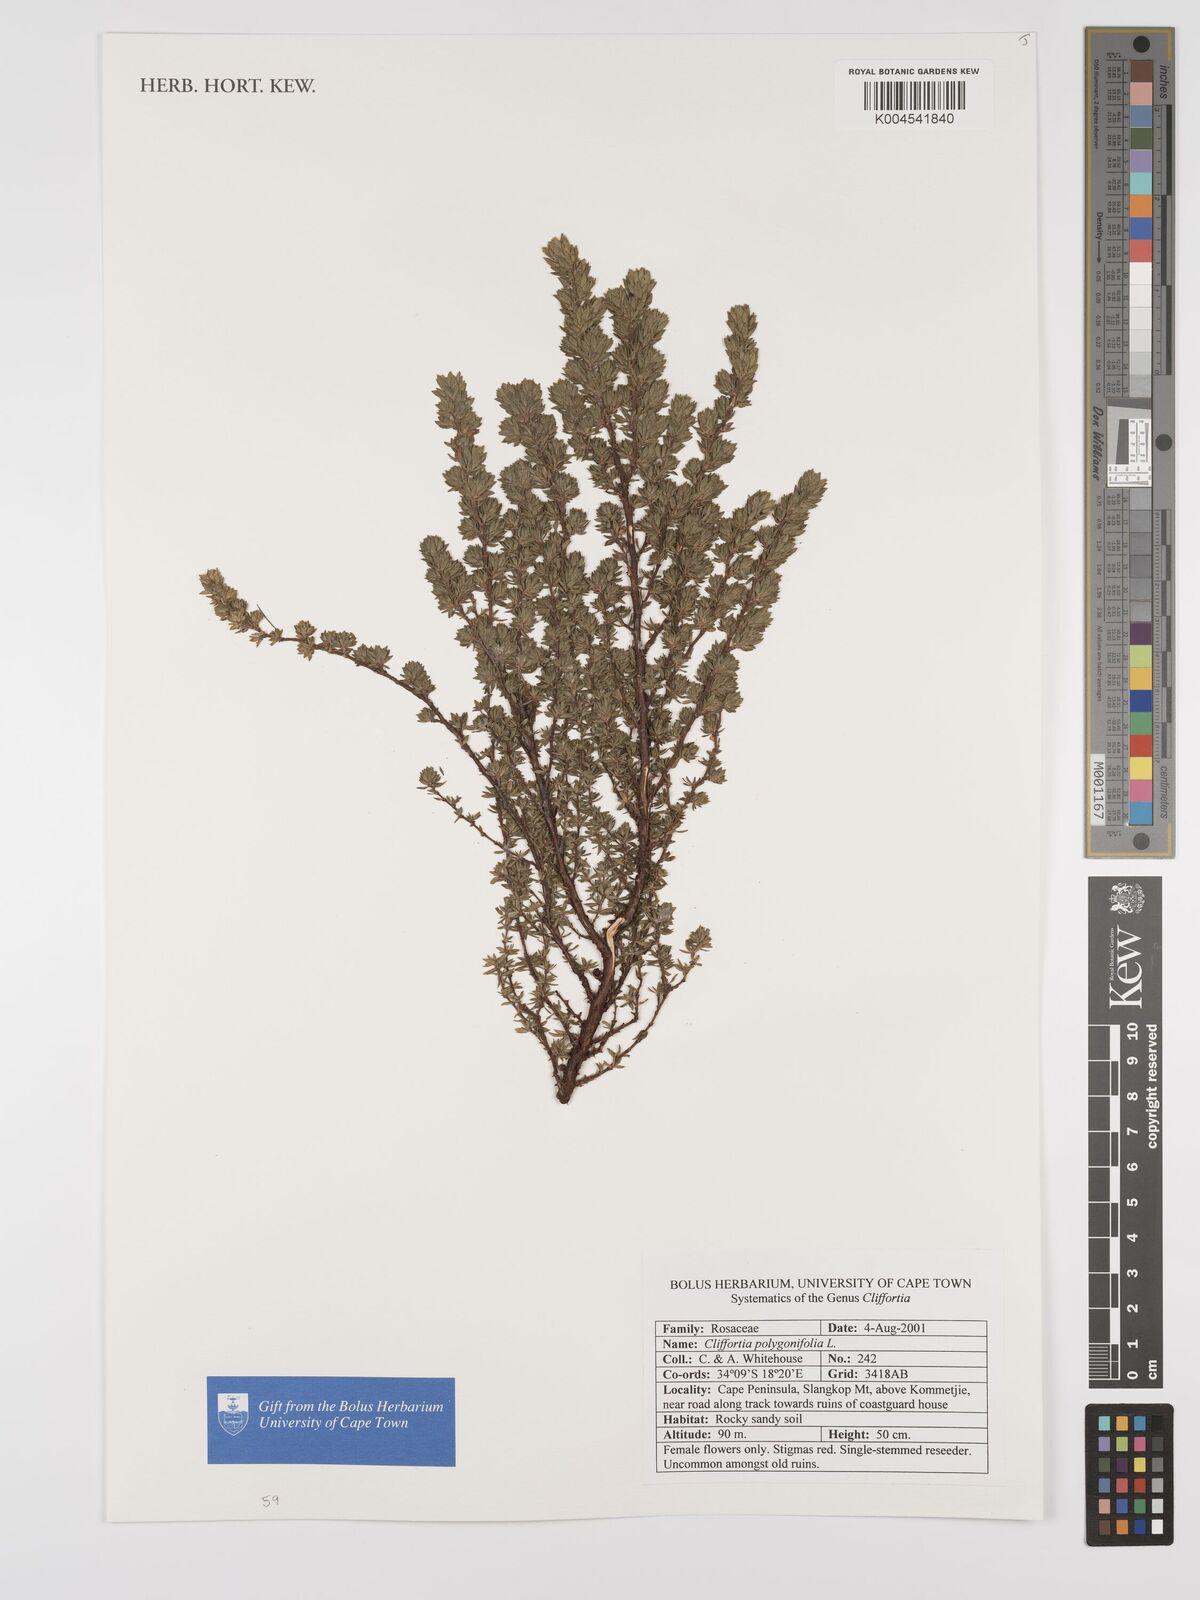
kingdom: Plantae
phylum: Tracheophyta
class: Magnoliopsida
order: Rosales
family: Rosaceae
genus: Cliffortia
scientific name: Cliffortia polygonifolia
